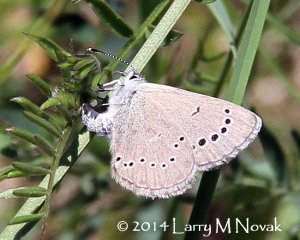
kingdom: Animalia
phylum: Arthropoda
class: Insecta
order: Lepidoptera
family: Lycaenidae
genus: Glaucopsyche
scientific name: Glaucopsyche lygdamus
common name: Silvery Blue
